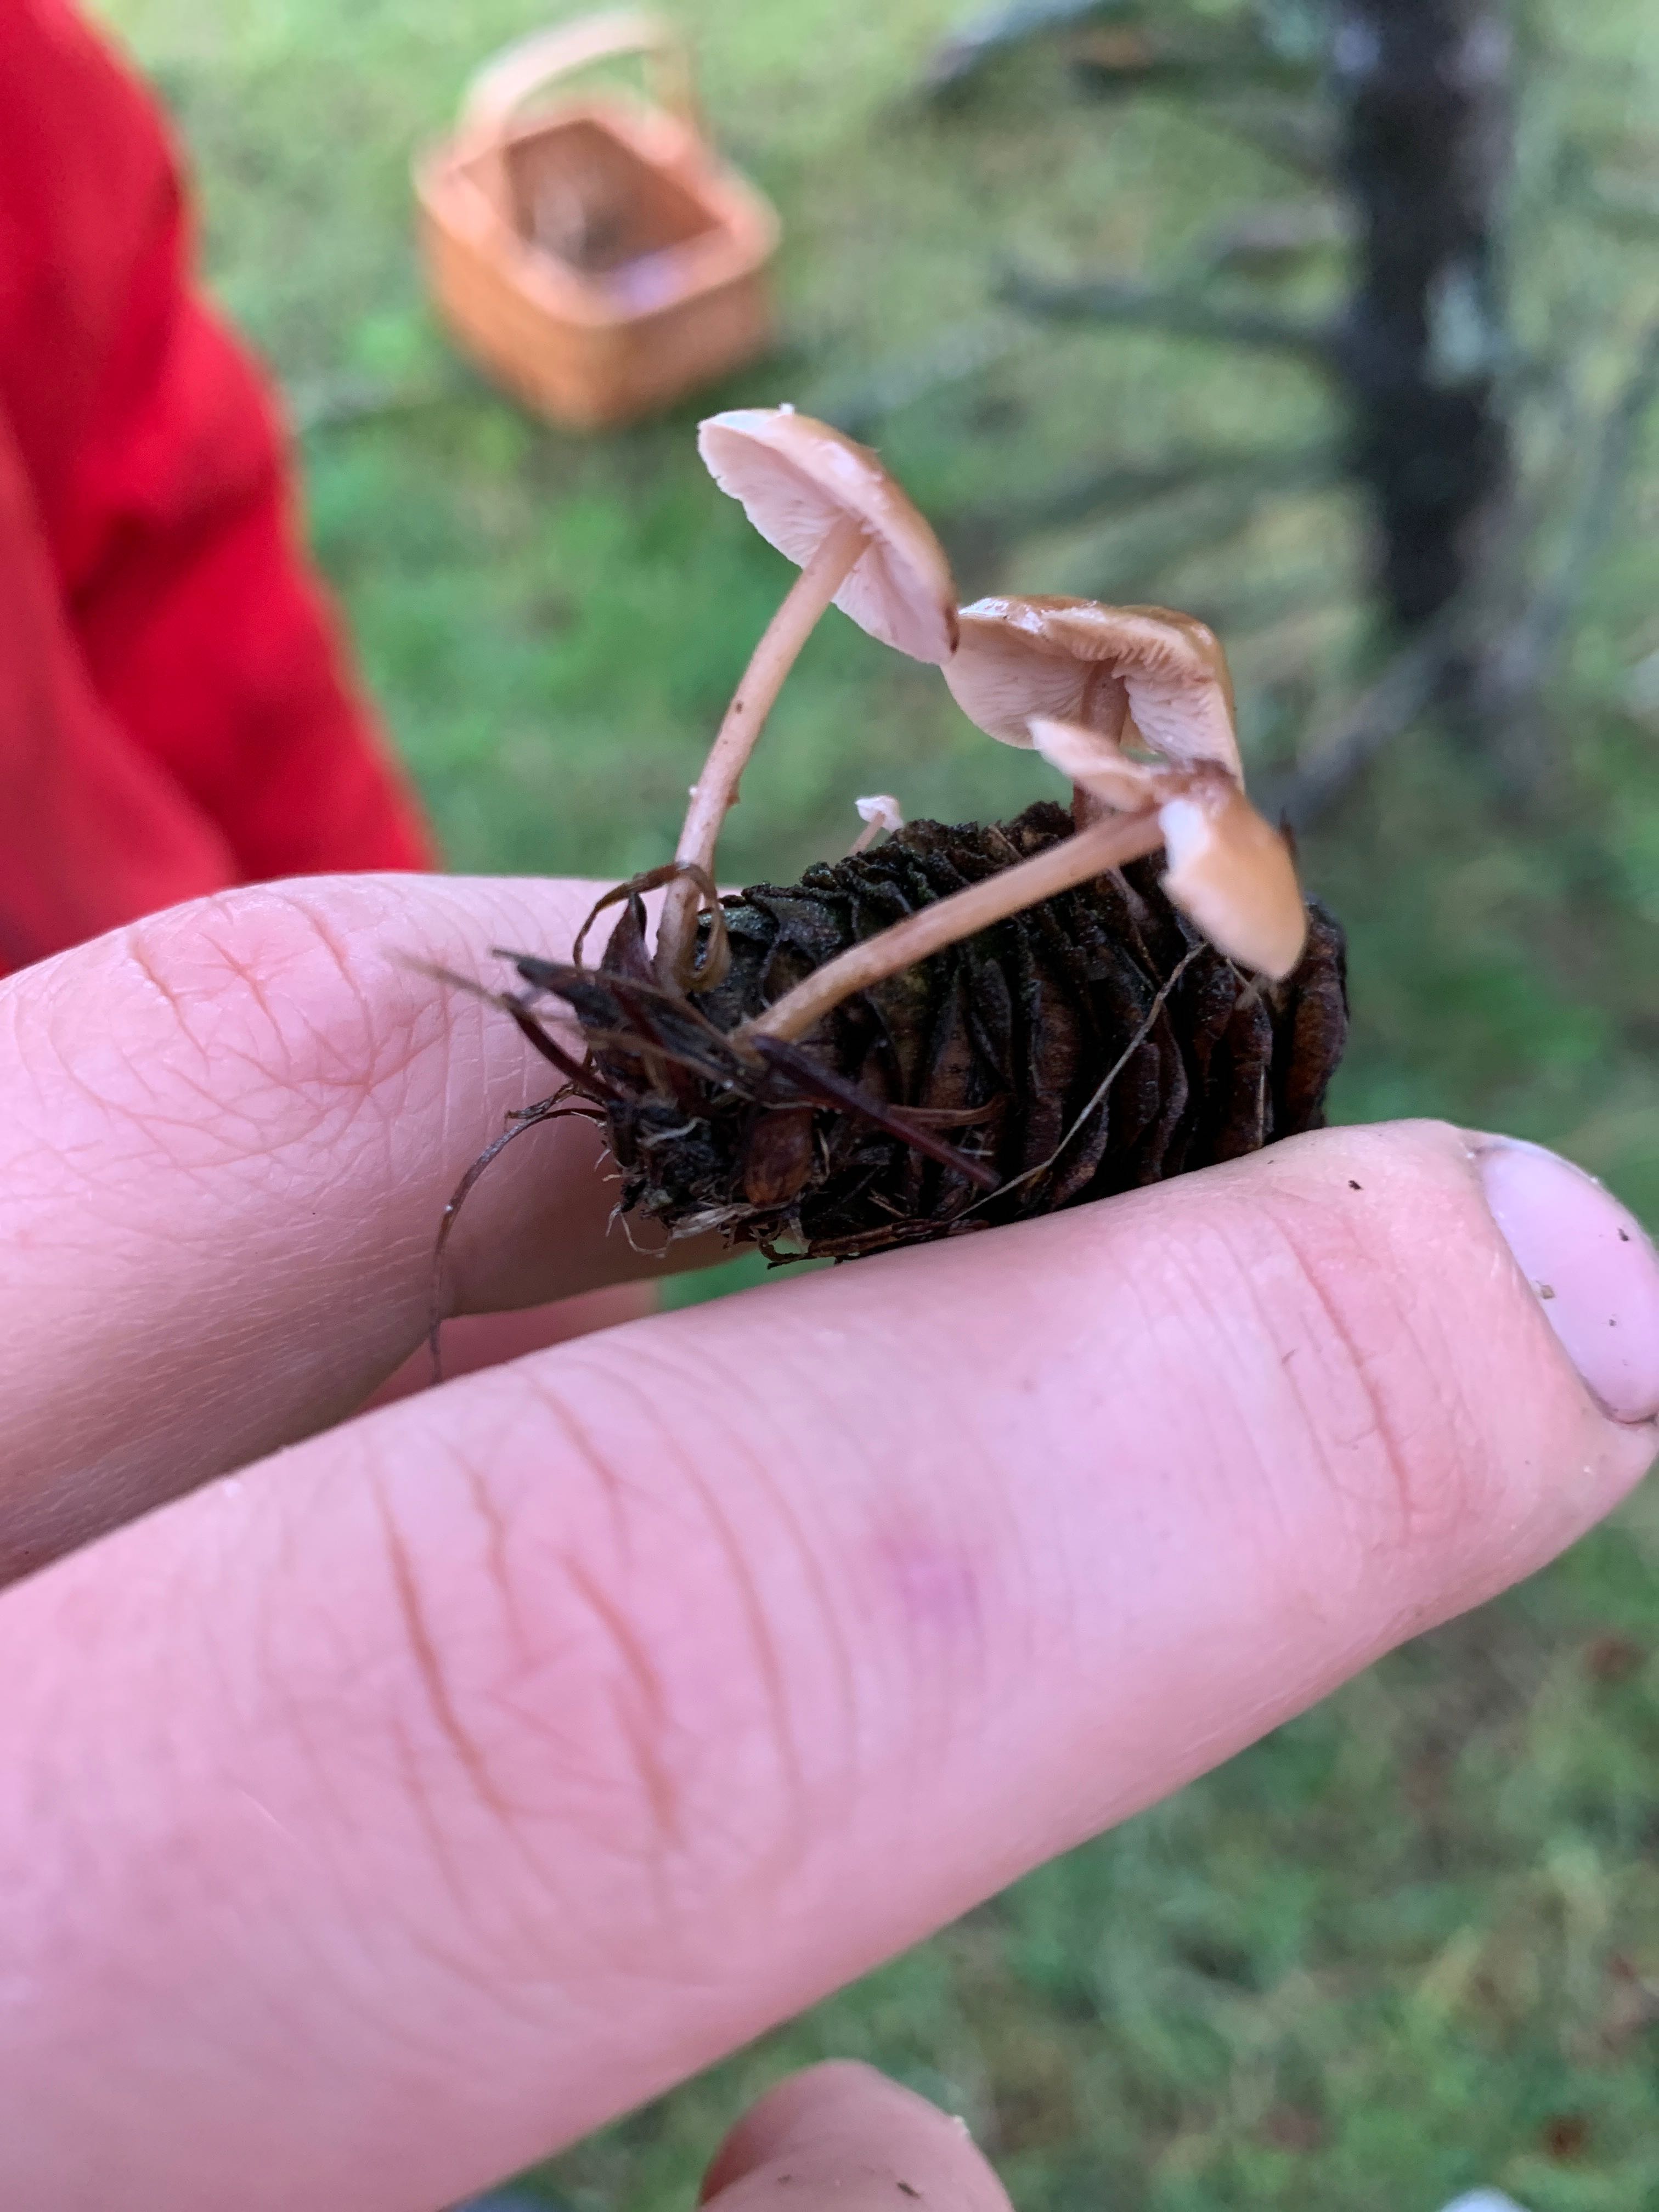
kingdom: Fungi
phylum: Basidiomycota
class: Agaricomycetes
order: Agaricales
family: Marasmiaceae
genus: Baeospora
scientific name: Baeospora myosura
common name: koglebruskhat
